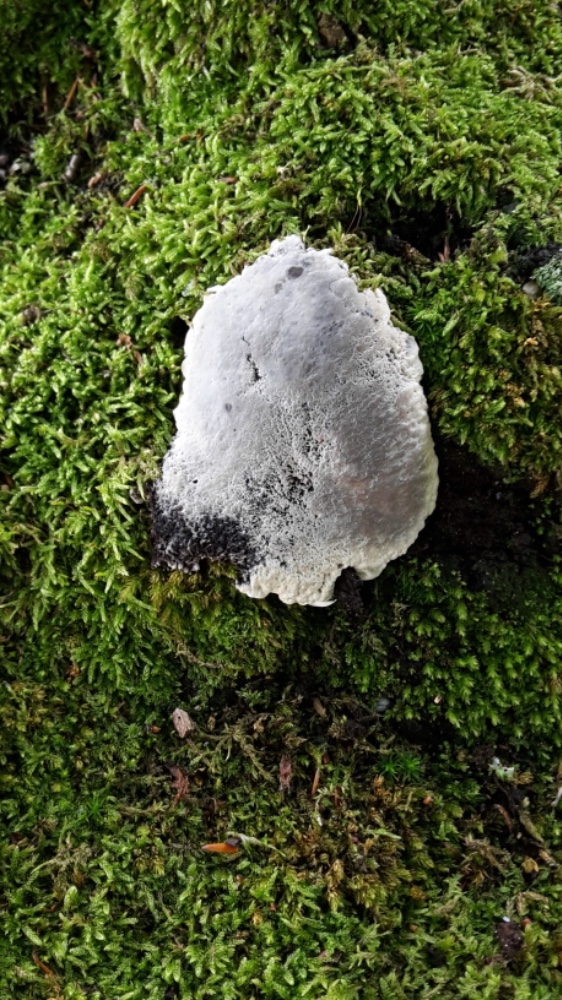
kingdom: Fungi
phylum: Basidiomycota
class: Agaricomycetes
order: Thelephorales
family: Thelephoraceae
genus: Phellodon
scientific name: Phellodon confluens
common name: pjaltet duftpigsvamp
